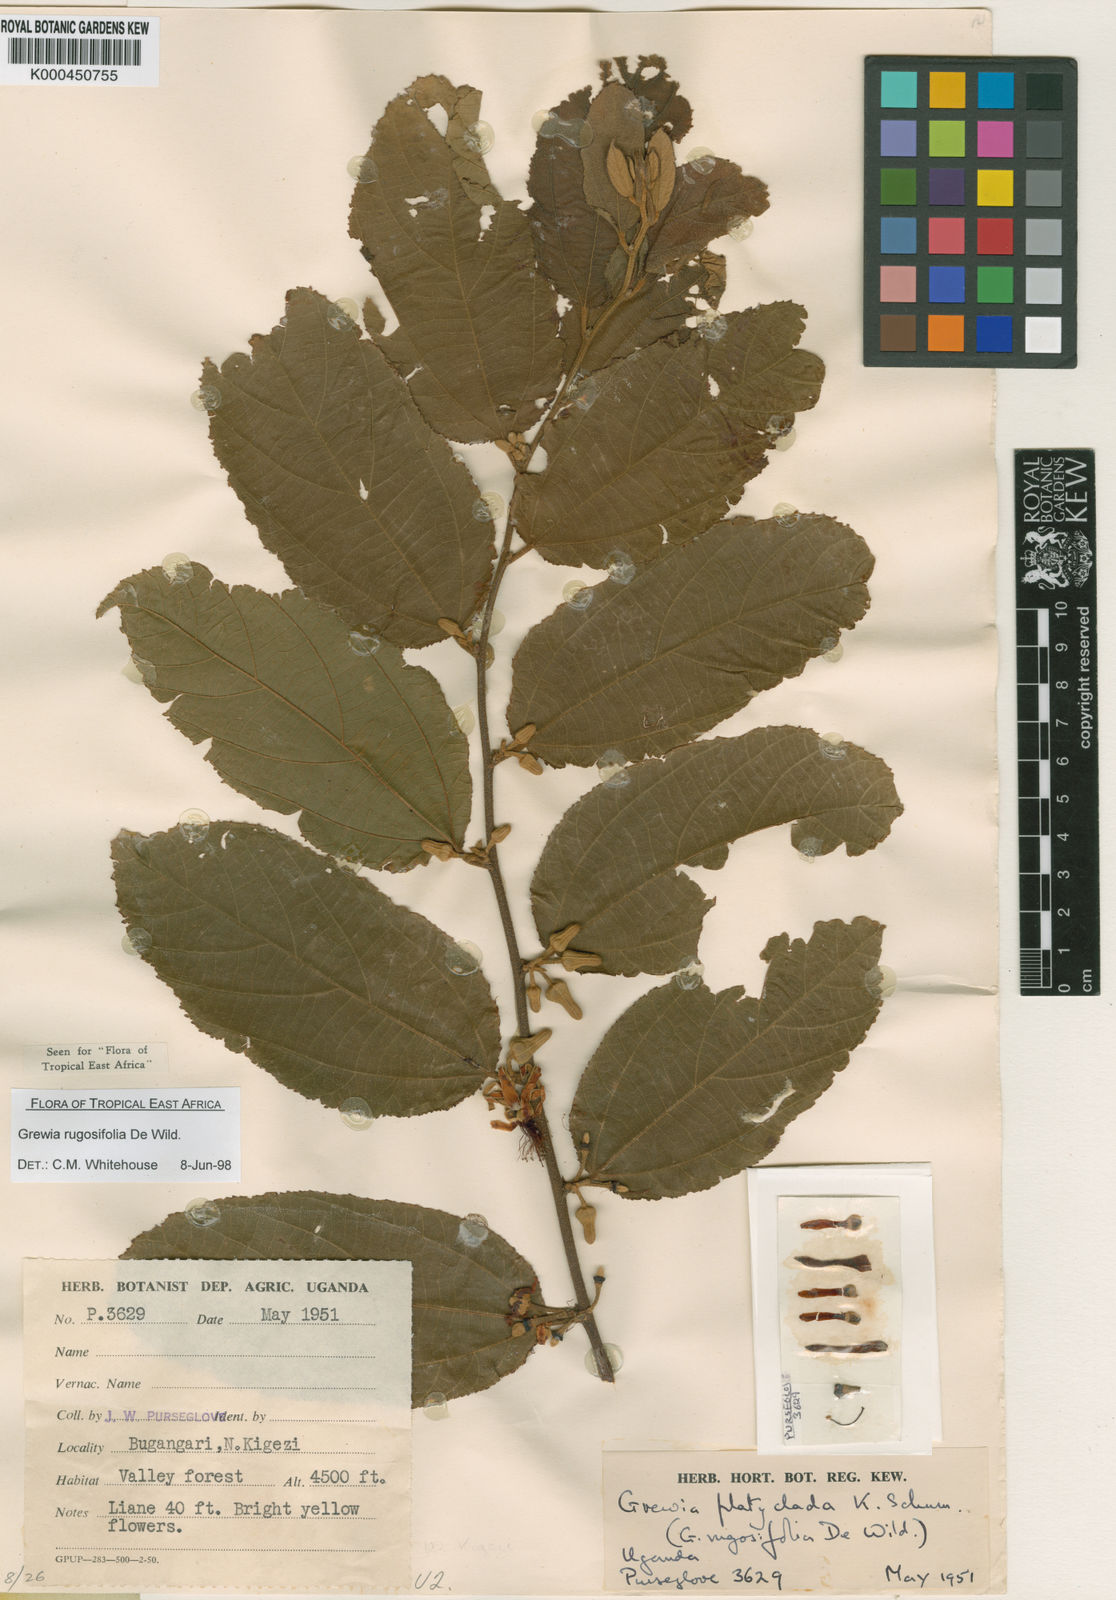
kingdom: Plantae
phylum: Tracheophyta
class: Magnoliopsida
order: Malvales
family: Malvaceae
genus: Grewia
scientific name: Grewia rugosifolia
